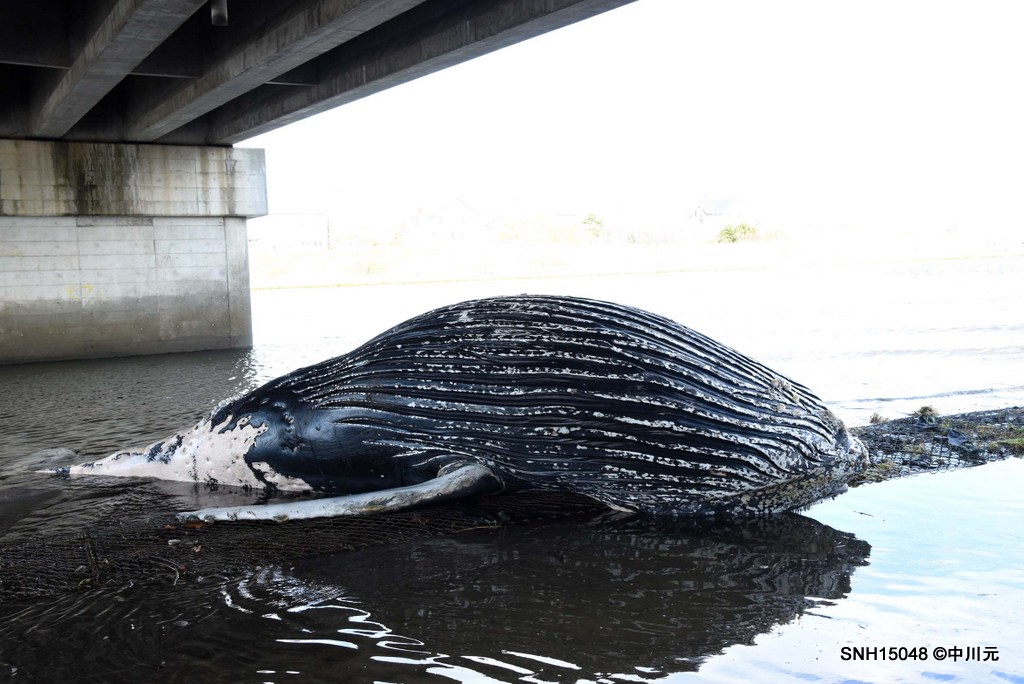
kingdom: Animalia
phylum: Chordata
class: Mammalia
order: Cetacea
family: Balaenopteridae
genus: Megaptera
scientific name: Megaptera novaeangliae
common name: Humpback whale
